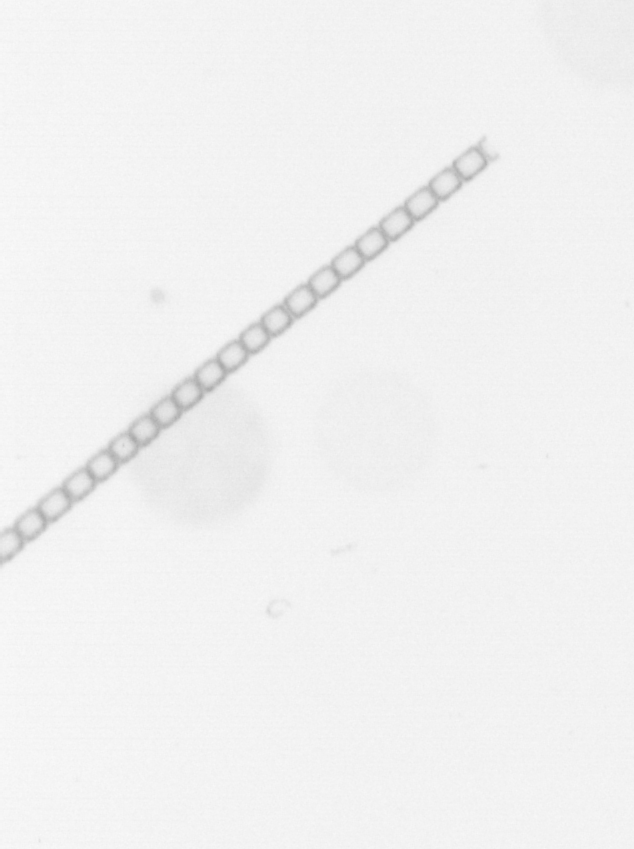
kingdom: Chromista
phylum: Ochrophyta
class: Bacillariophyceae
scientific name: Bacillariophyceae
